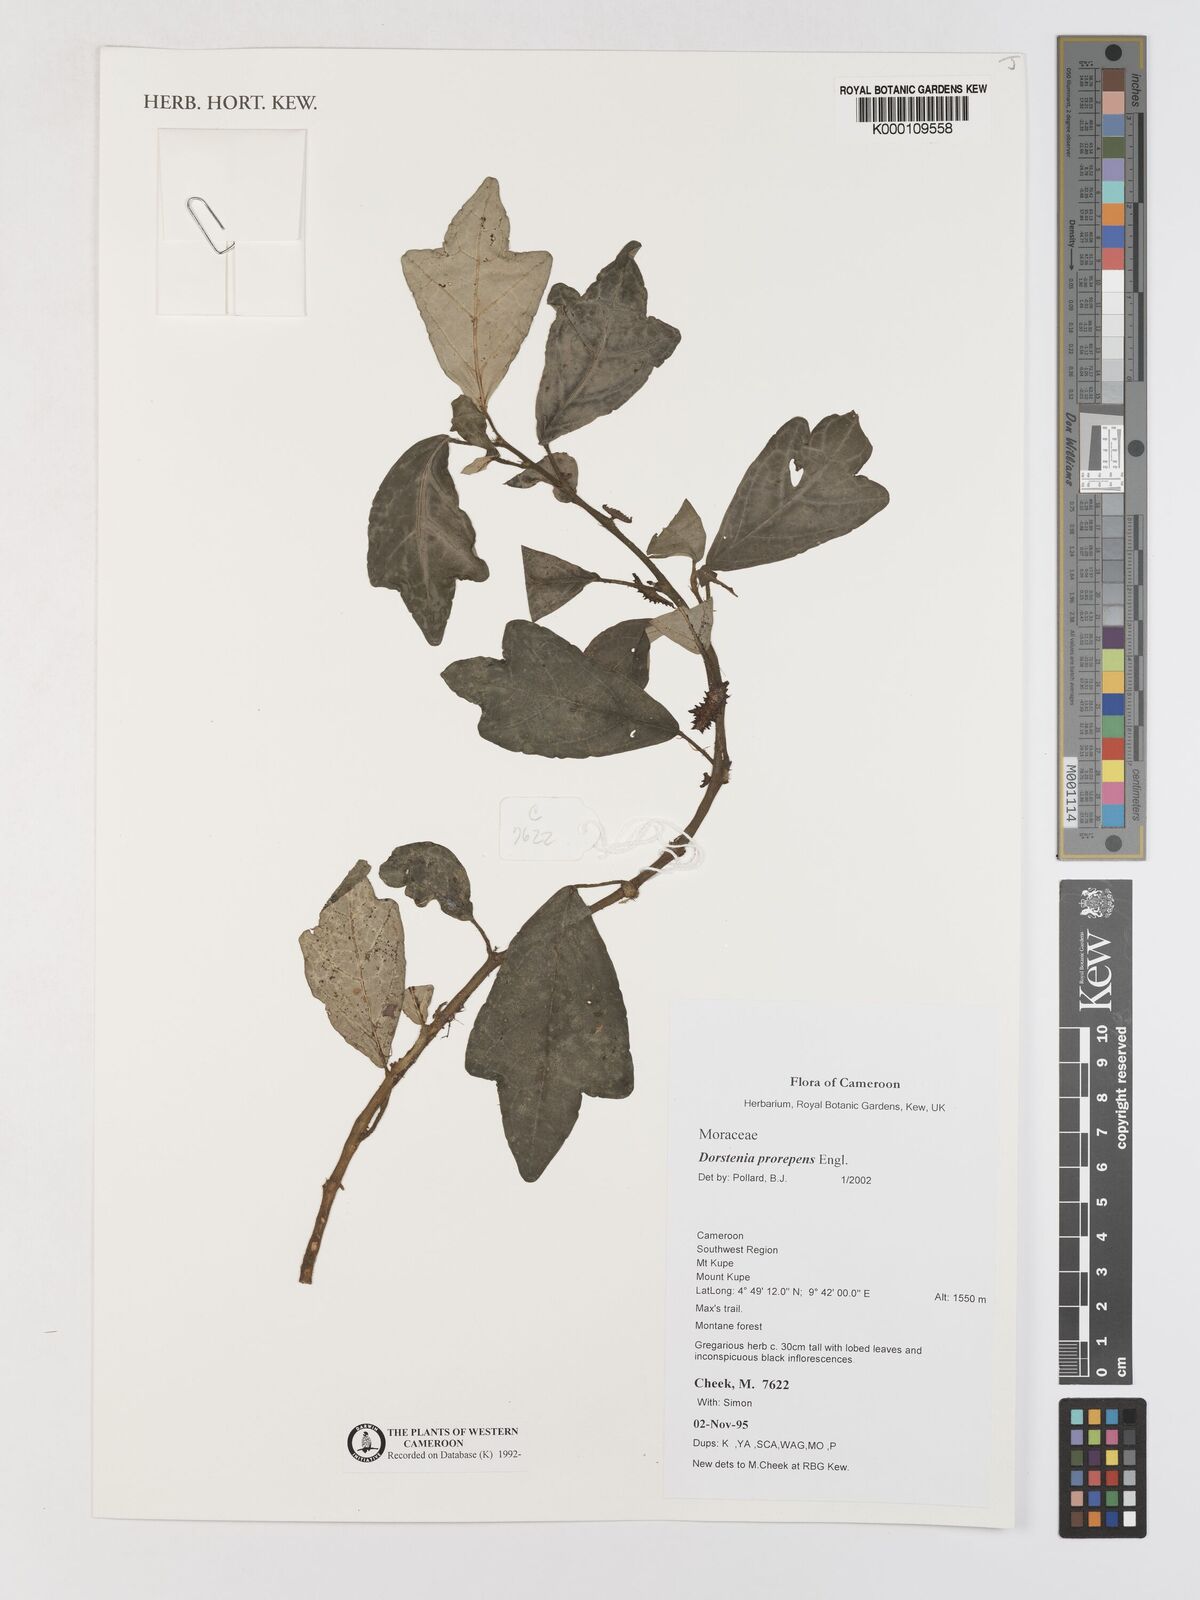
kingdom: Plantae
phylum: Tracheophyta
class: Magnoliopsida
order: Rosales
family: Moraceae
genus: Dorstenia
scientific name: Dorstenia prorepens
